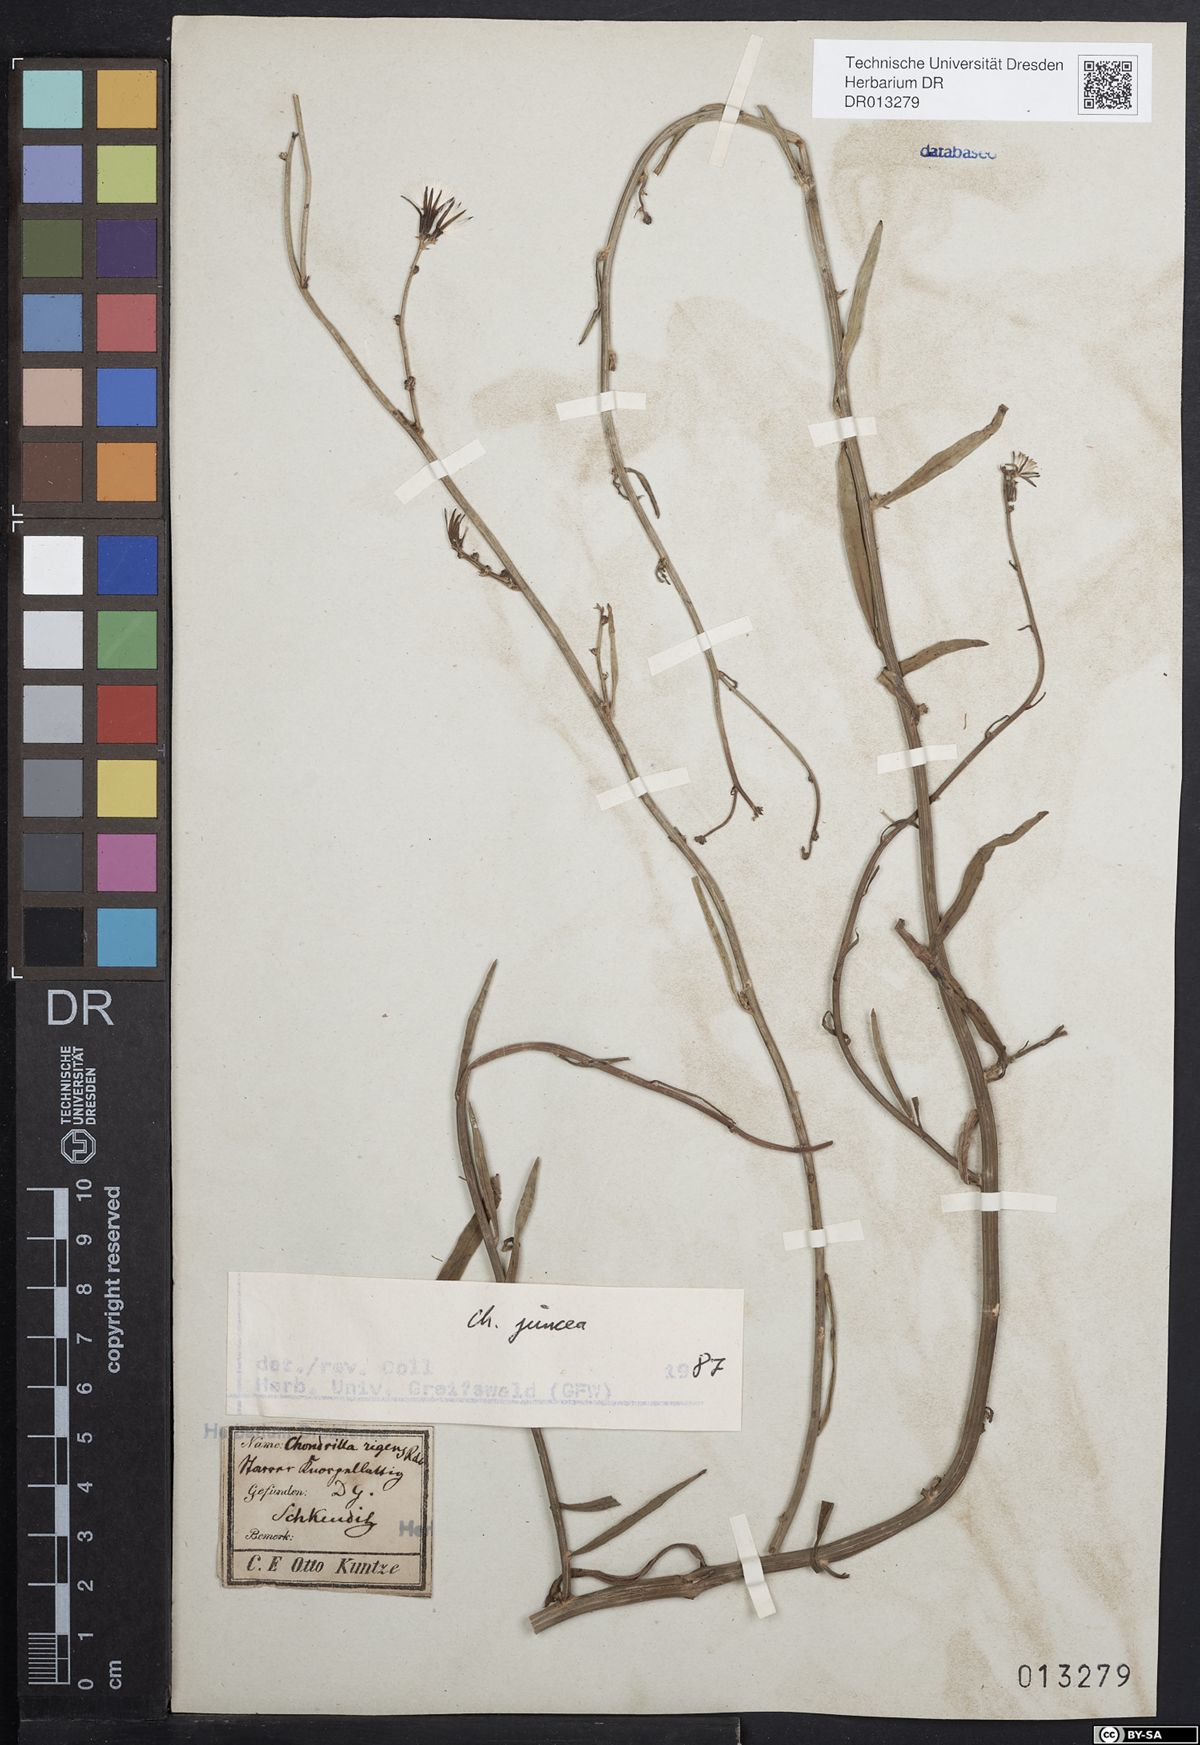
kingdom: Plantae
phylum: Tracheophyta
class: Magnoliopsida
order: Asterales
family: Asteraceae
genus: Chondrilla
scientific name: Chondrilla juncea
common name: Skeleton weed
